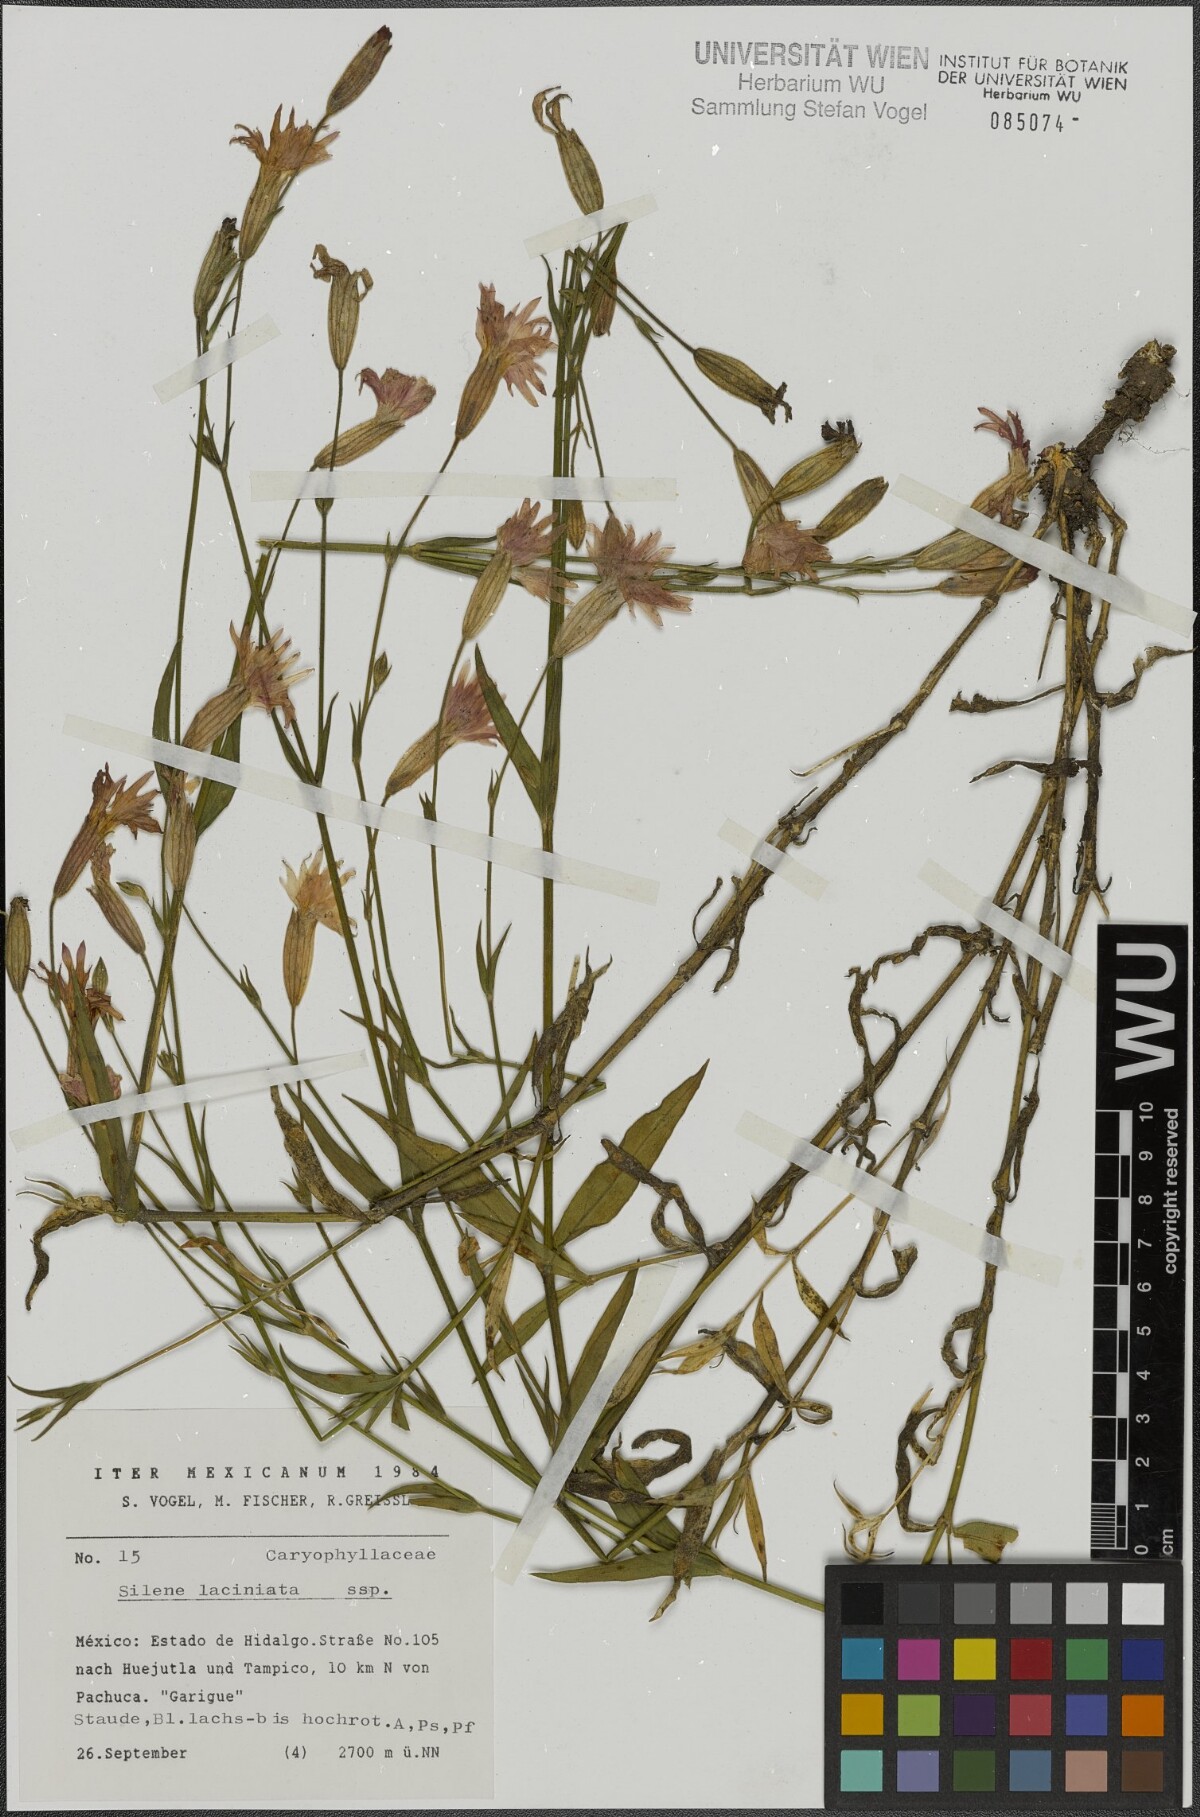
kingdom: Plantae
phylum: Tracheophyta
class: Magnoliopsida
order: Caryophyllales
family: Caryophyllaceae
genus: Silene
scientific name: Silene laciniata
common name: Indian-pink
